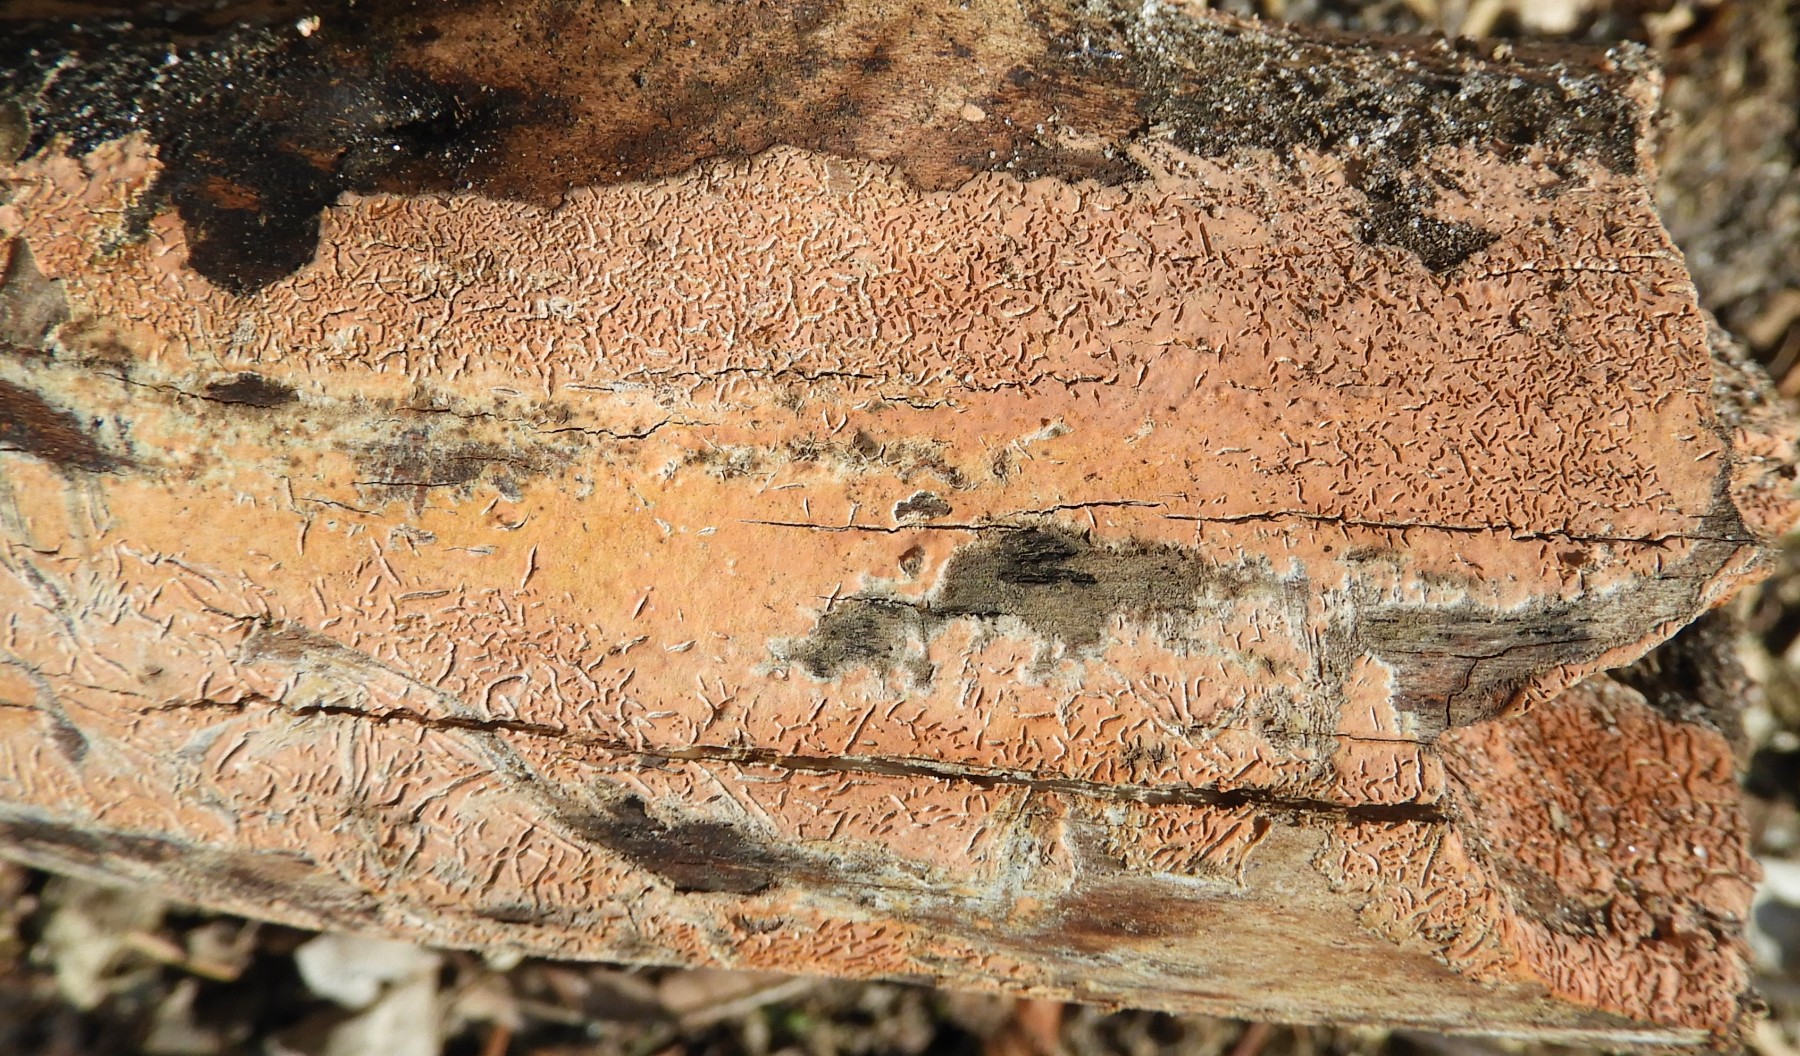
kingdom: Fungi
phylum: Basidiomycota
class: Agaricomycetes
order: Russulales
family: Peniophoraceae
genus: Peniophora
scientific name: Peniophora incarnata
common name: laksefarvet voksskind
